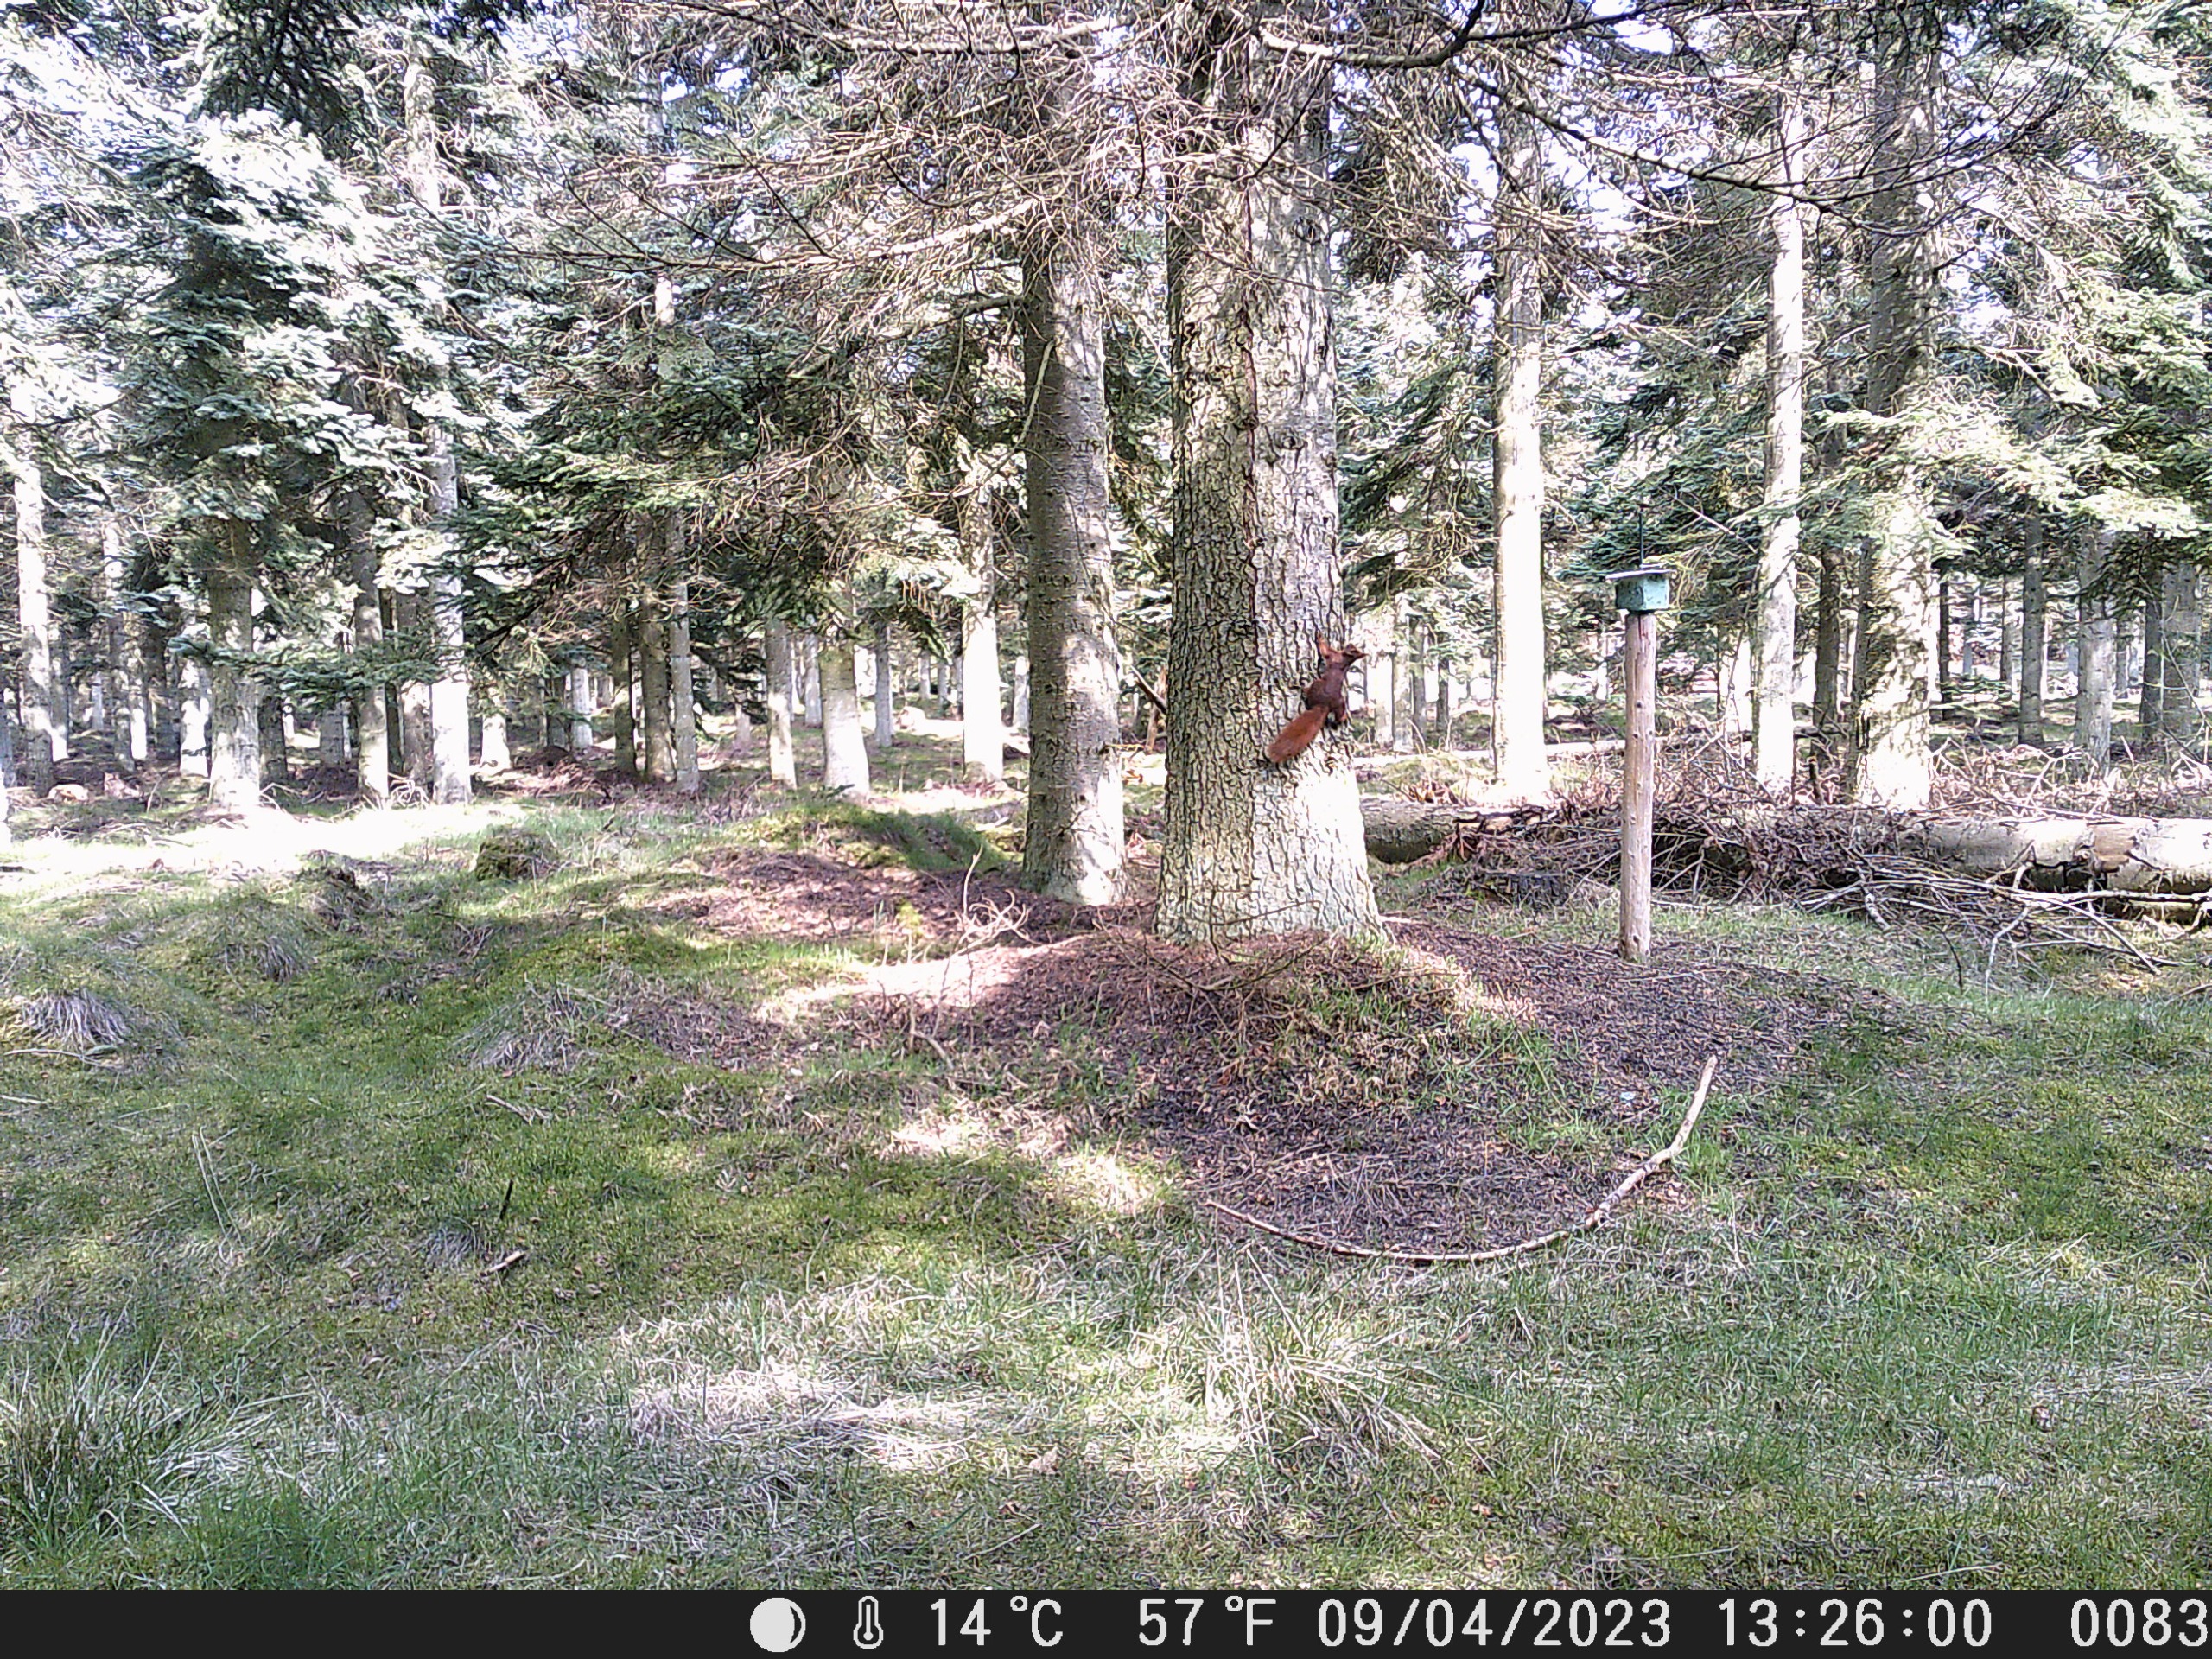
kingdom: Animalia
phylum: Chordata
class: Mammalia
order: Rodentia
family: Sciuridae
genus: Sciurus
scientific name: Sciurus vulgaris
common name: Egern
